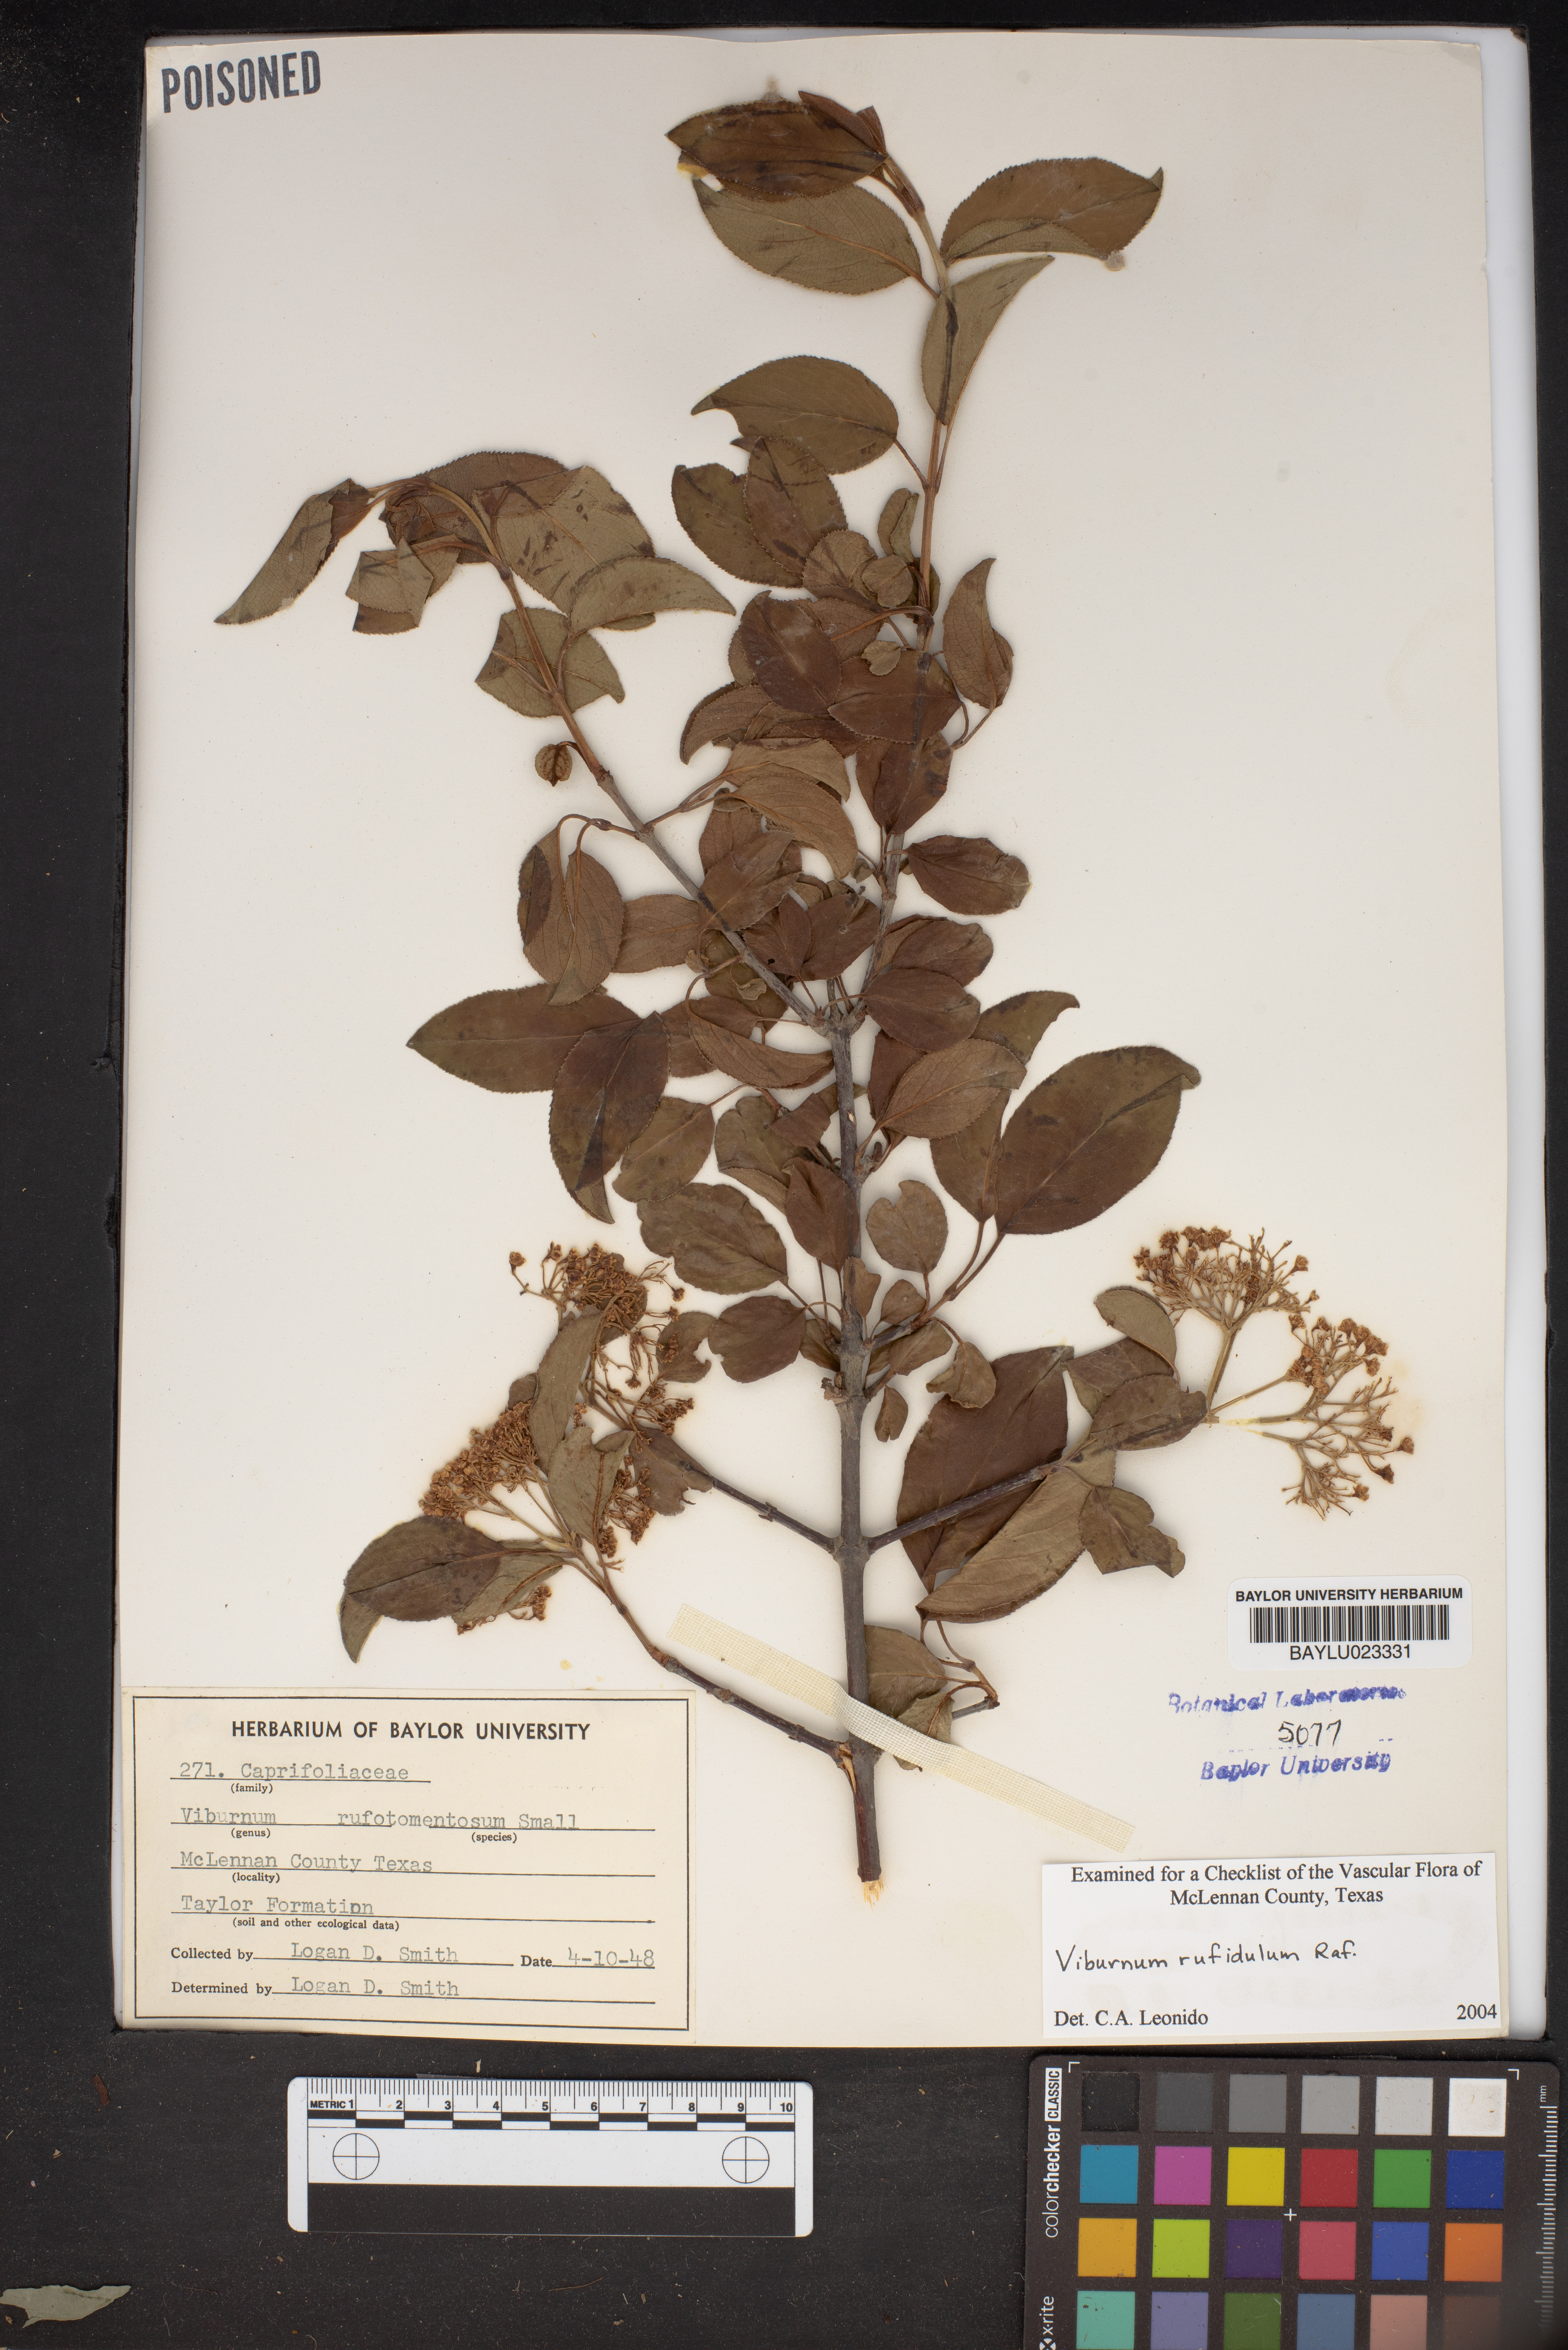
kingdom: Plantae
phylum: Tracheophyta
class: Magnoliopsida
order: Dipsacales
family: Viburnaceae
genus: Viburnum
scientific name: Viburnum rufidulum
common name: Blue haw
